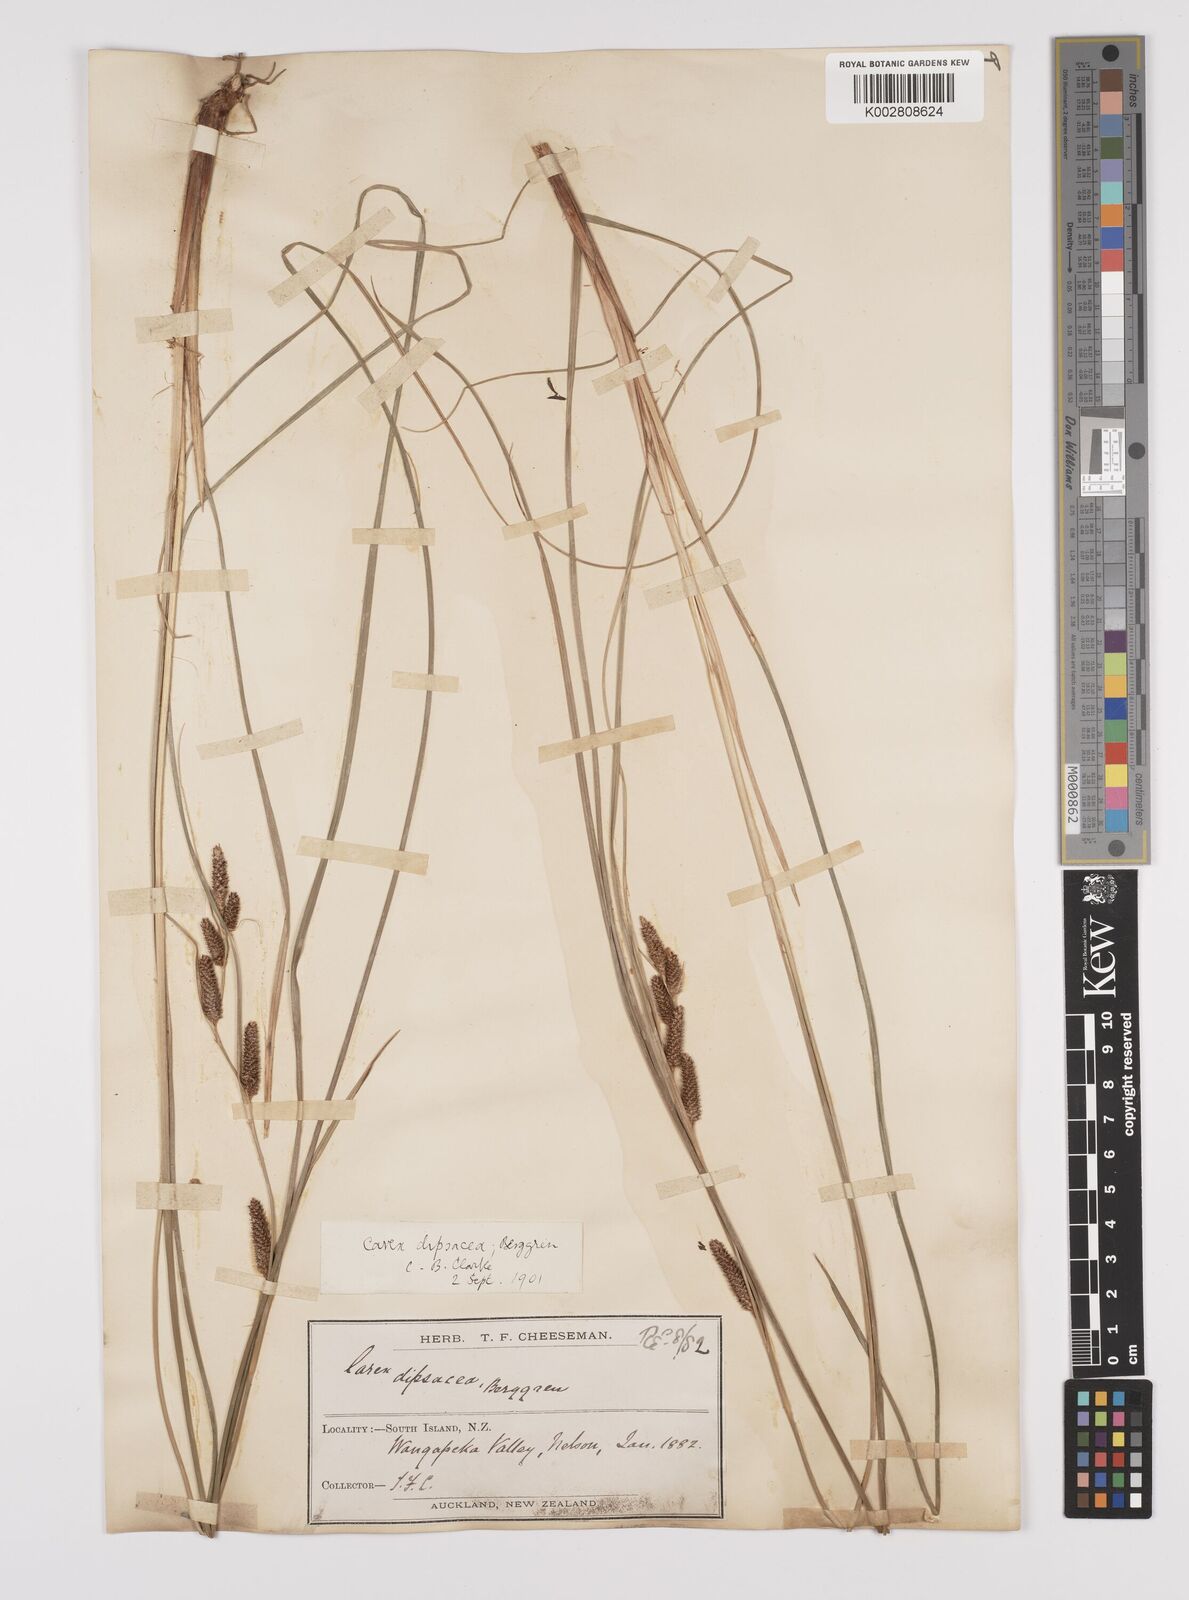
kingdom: Plantae
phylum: Tracheophyta
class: Liliopsida
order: Poales
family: Cyperaceae
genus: Carex
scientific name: Carex dipsacea
